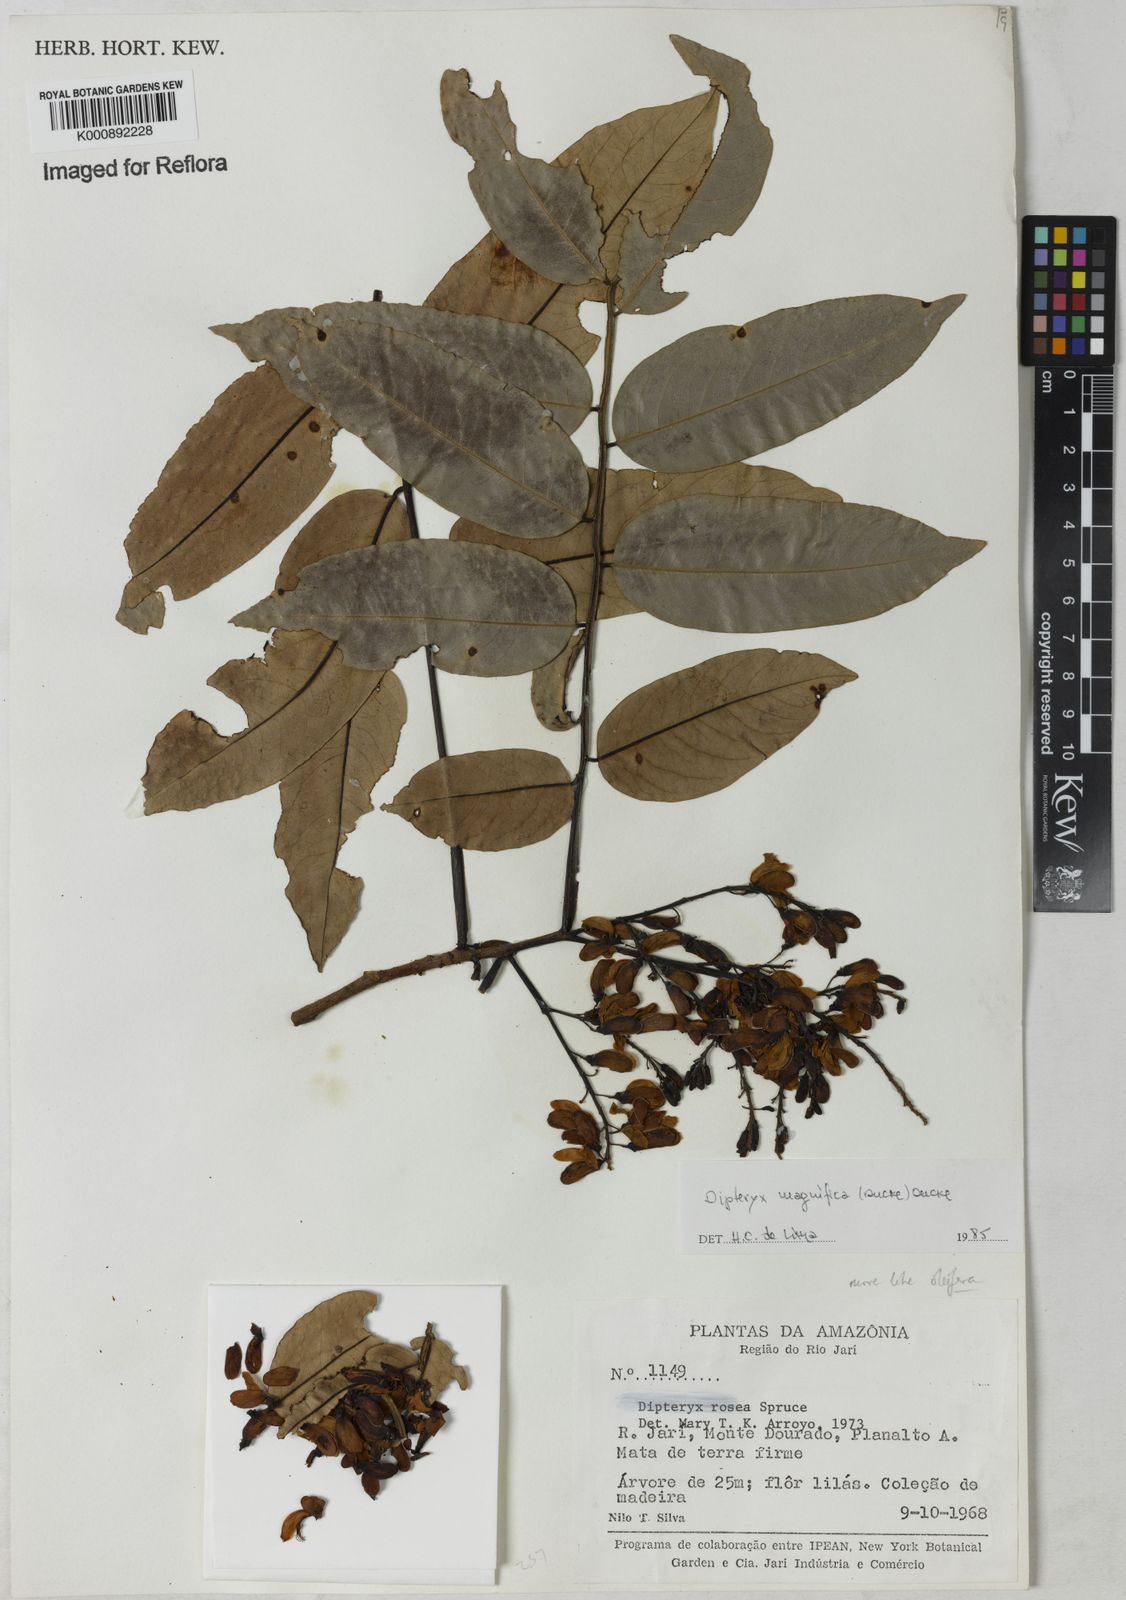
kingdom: Plantae
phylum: Tracheophyta
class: Magnoliopsida
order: Fabales
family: Fabaceae
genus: Dipteryx
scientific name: Dipteryx magnifica
